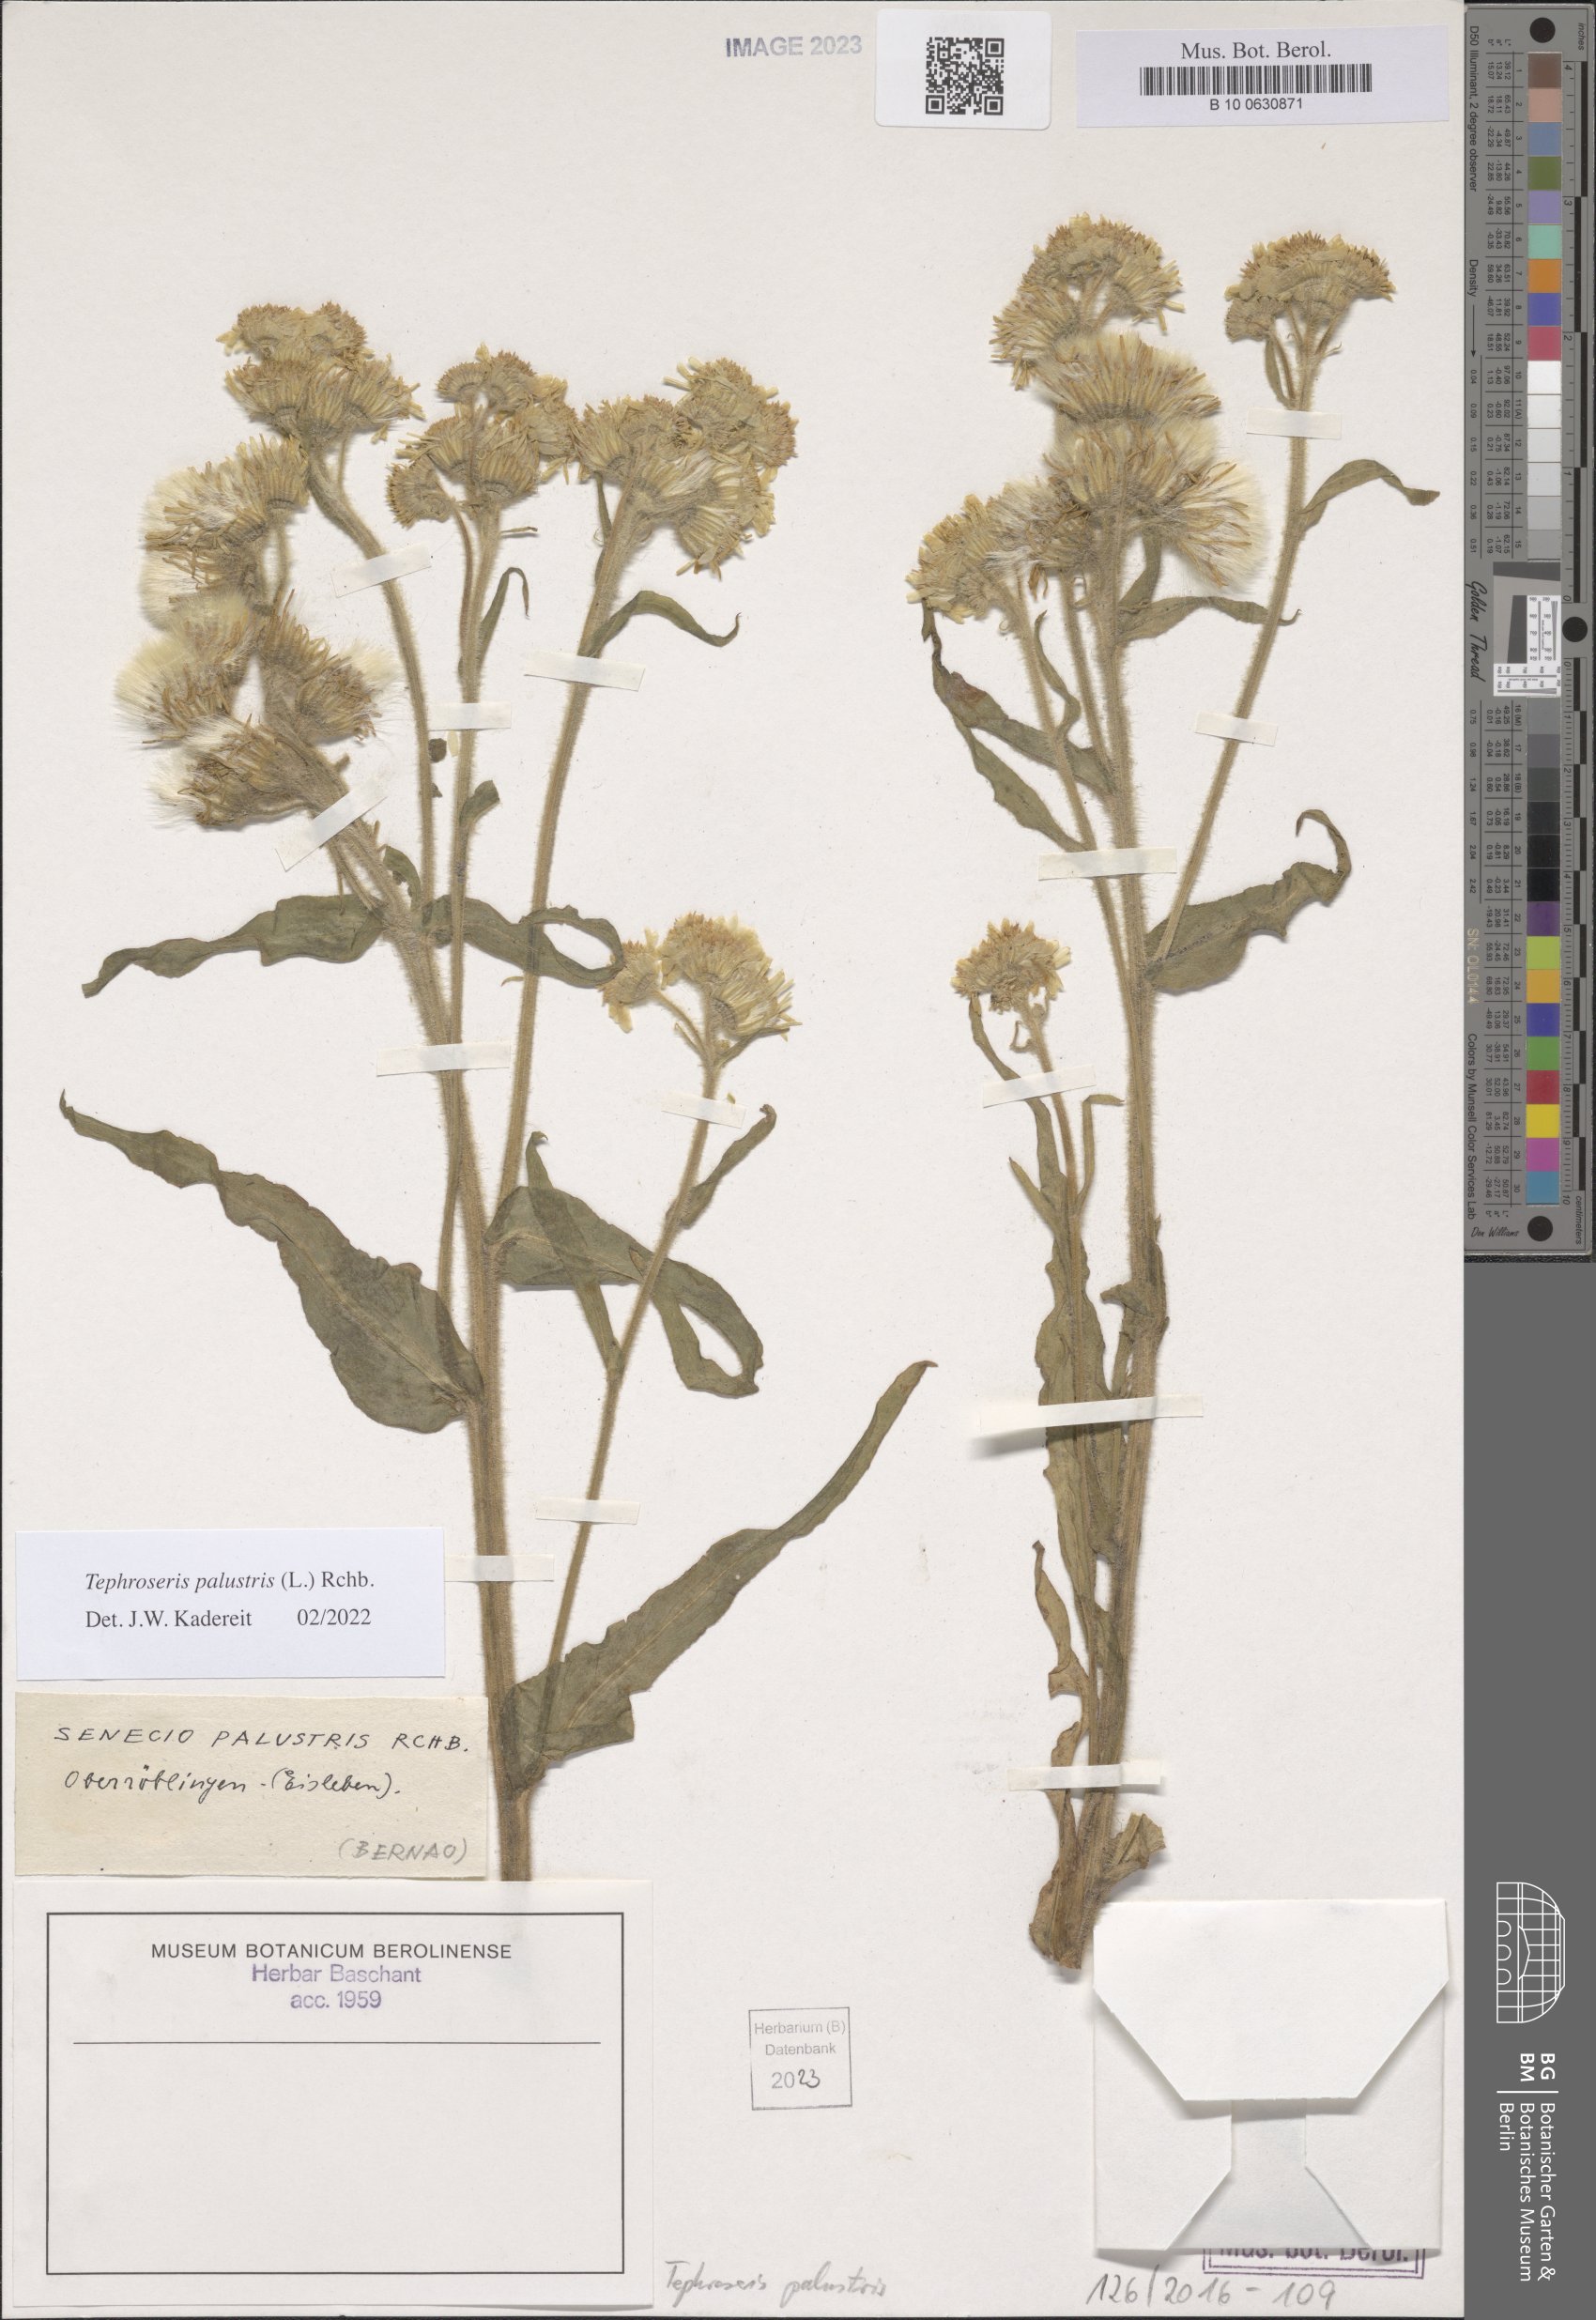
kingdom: Plantae
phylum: Tracheophyta
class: Magnoliopsida
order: Asterales
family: Asteraceae
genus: Tephroseris
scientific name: Tephroseris palustris
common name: Marsh fleawort
